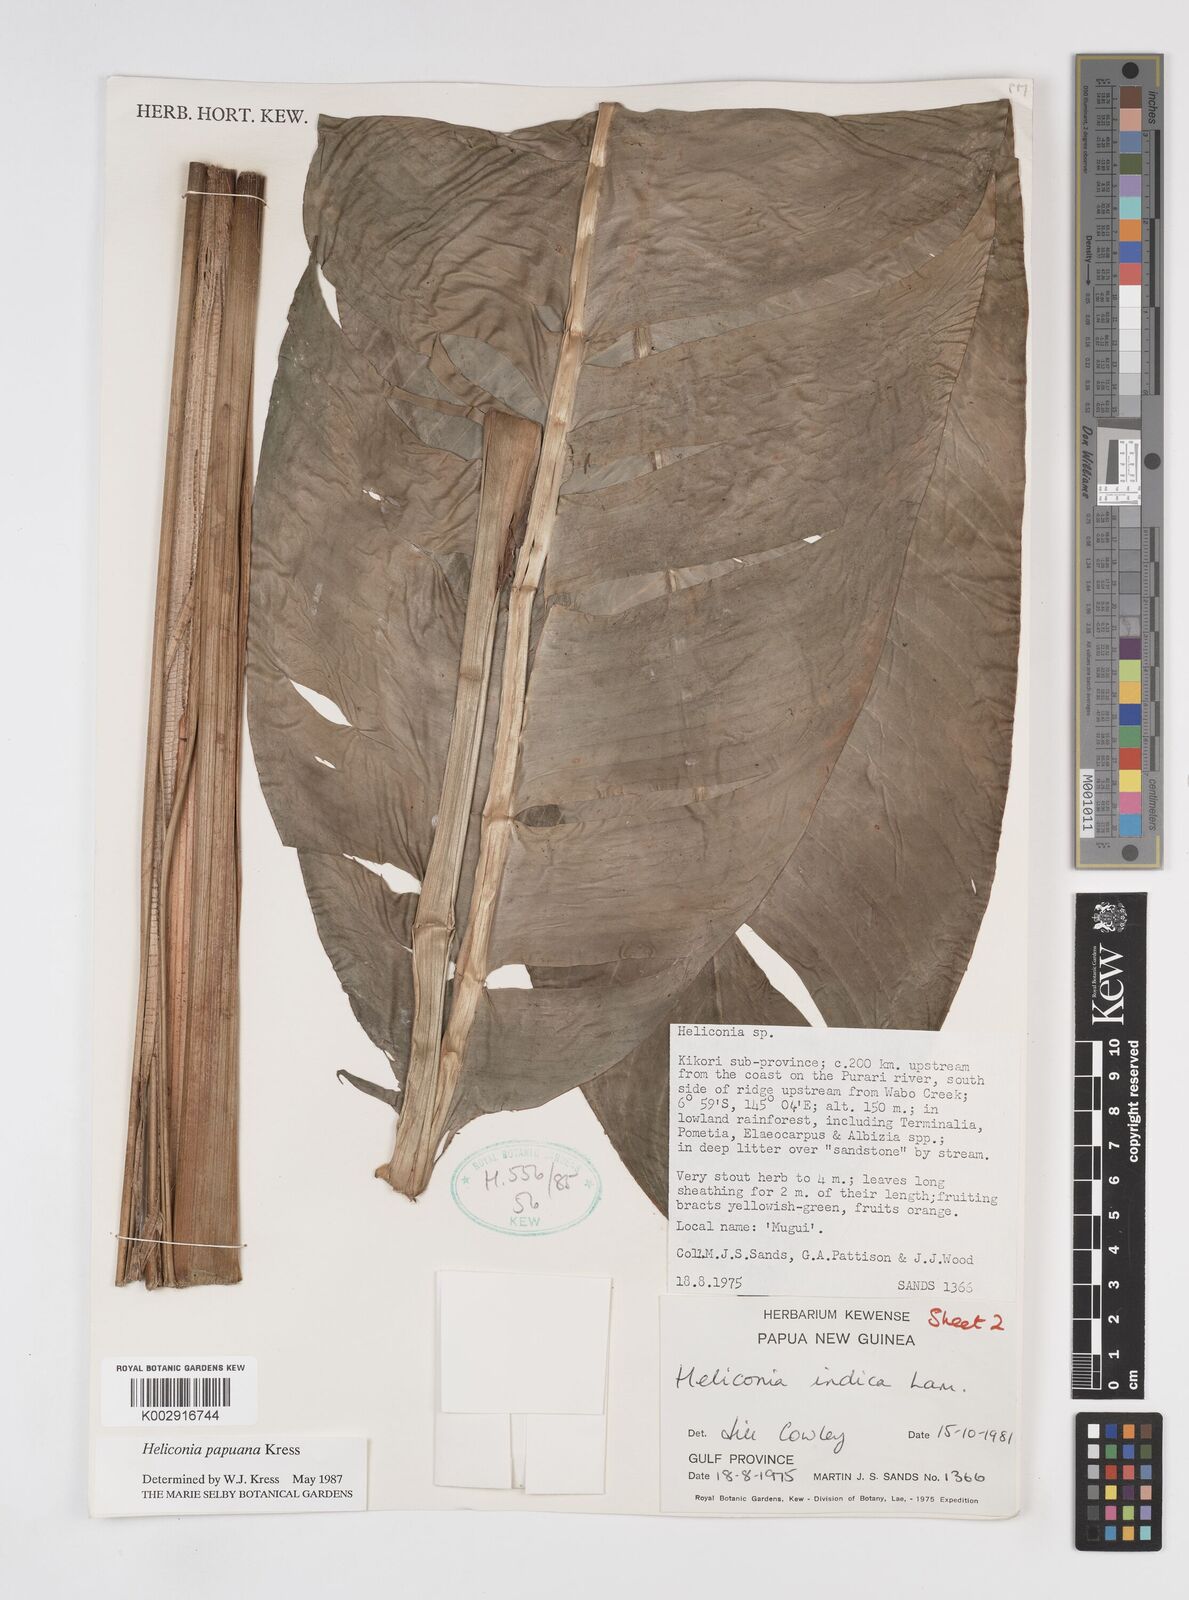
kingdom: Plantae
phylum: Tracheophyta
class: Liliopsida
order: Zingiberales
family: Heliconiaceae
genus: Heliconia
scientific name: Heliconia papuana
